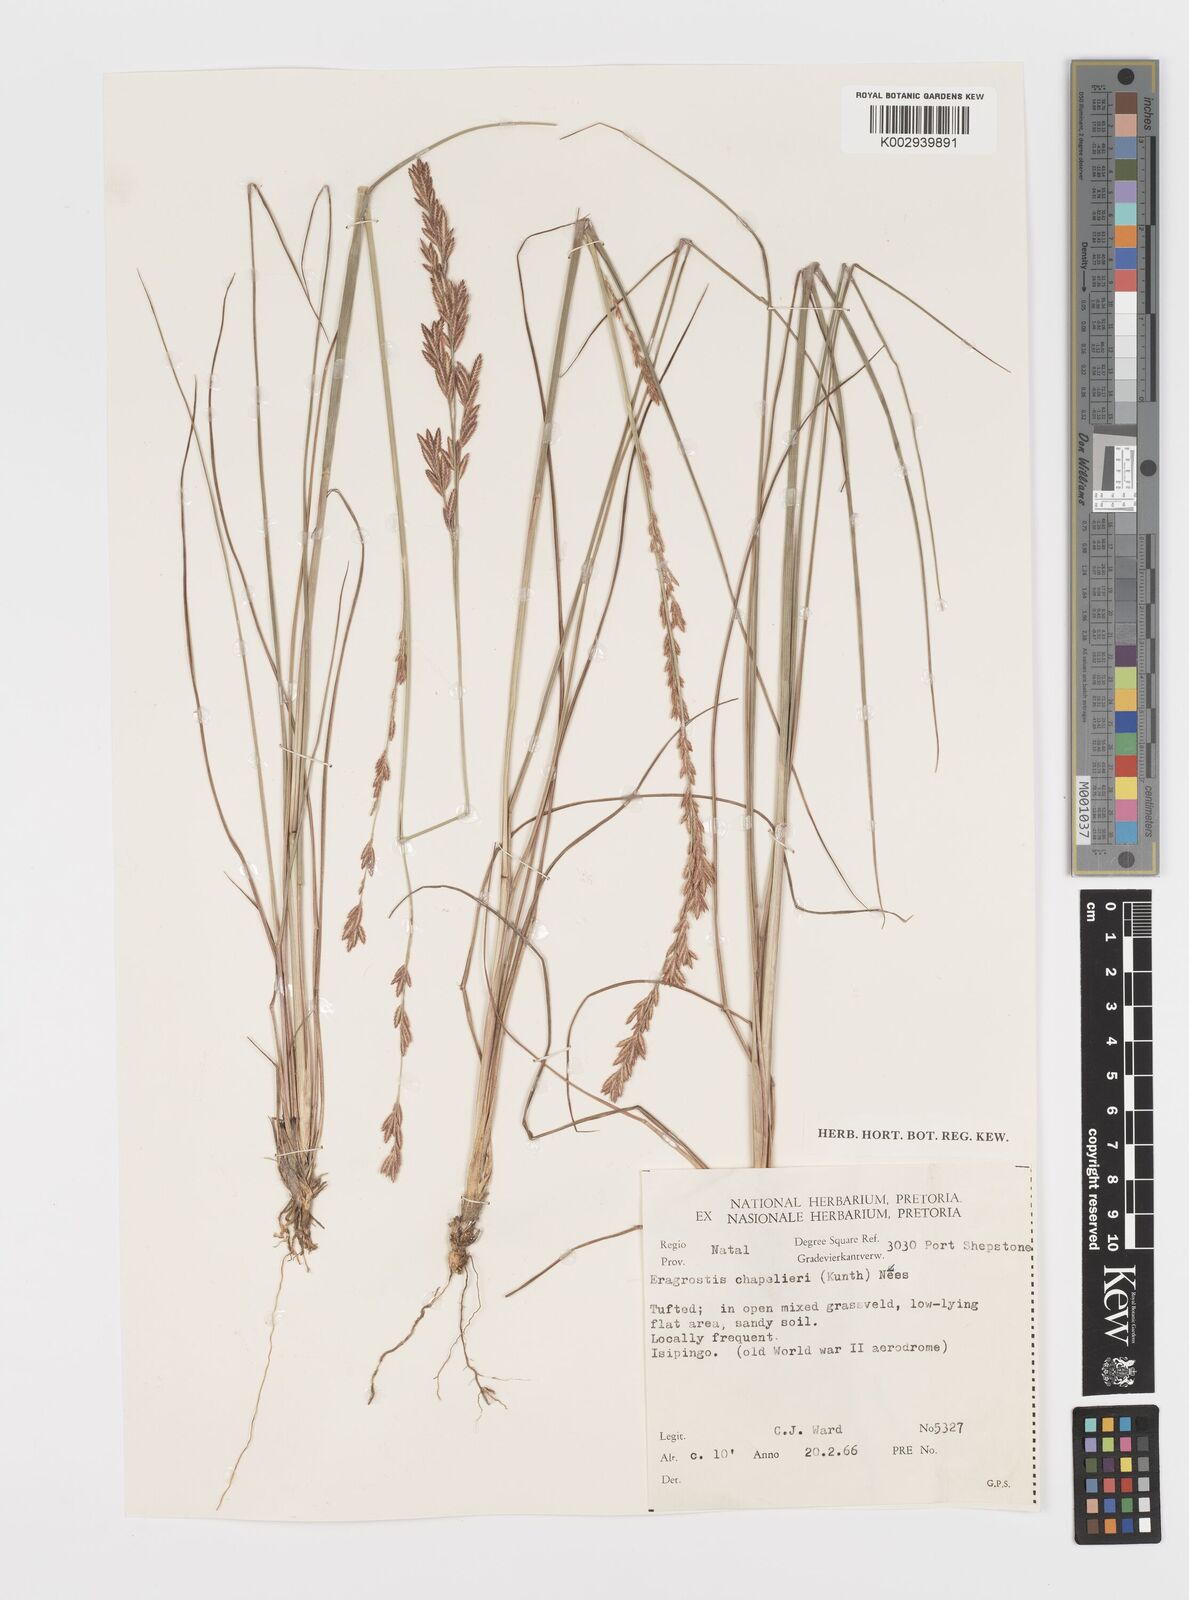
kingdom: Plantae
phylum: Tracheophyta
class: Liliopsida
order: Poales
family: Poaceae
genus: Eragrostis
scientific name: Eragrostis chapelieri
